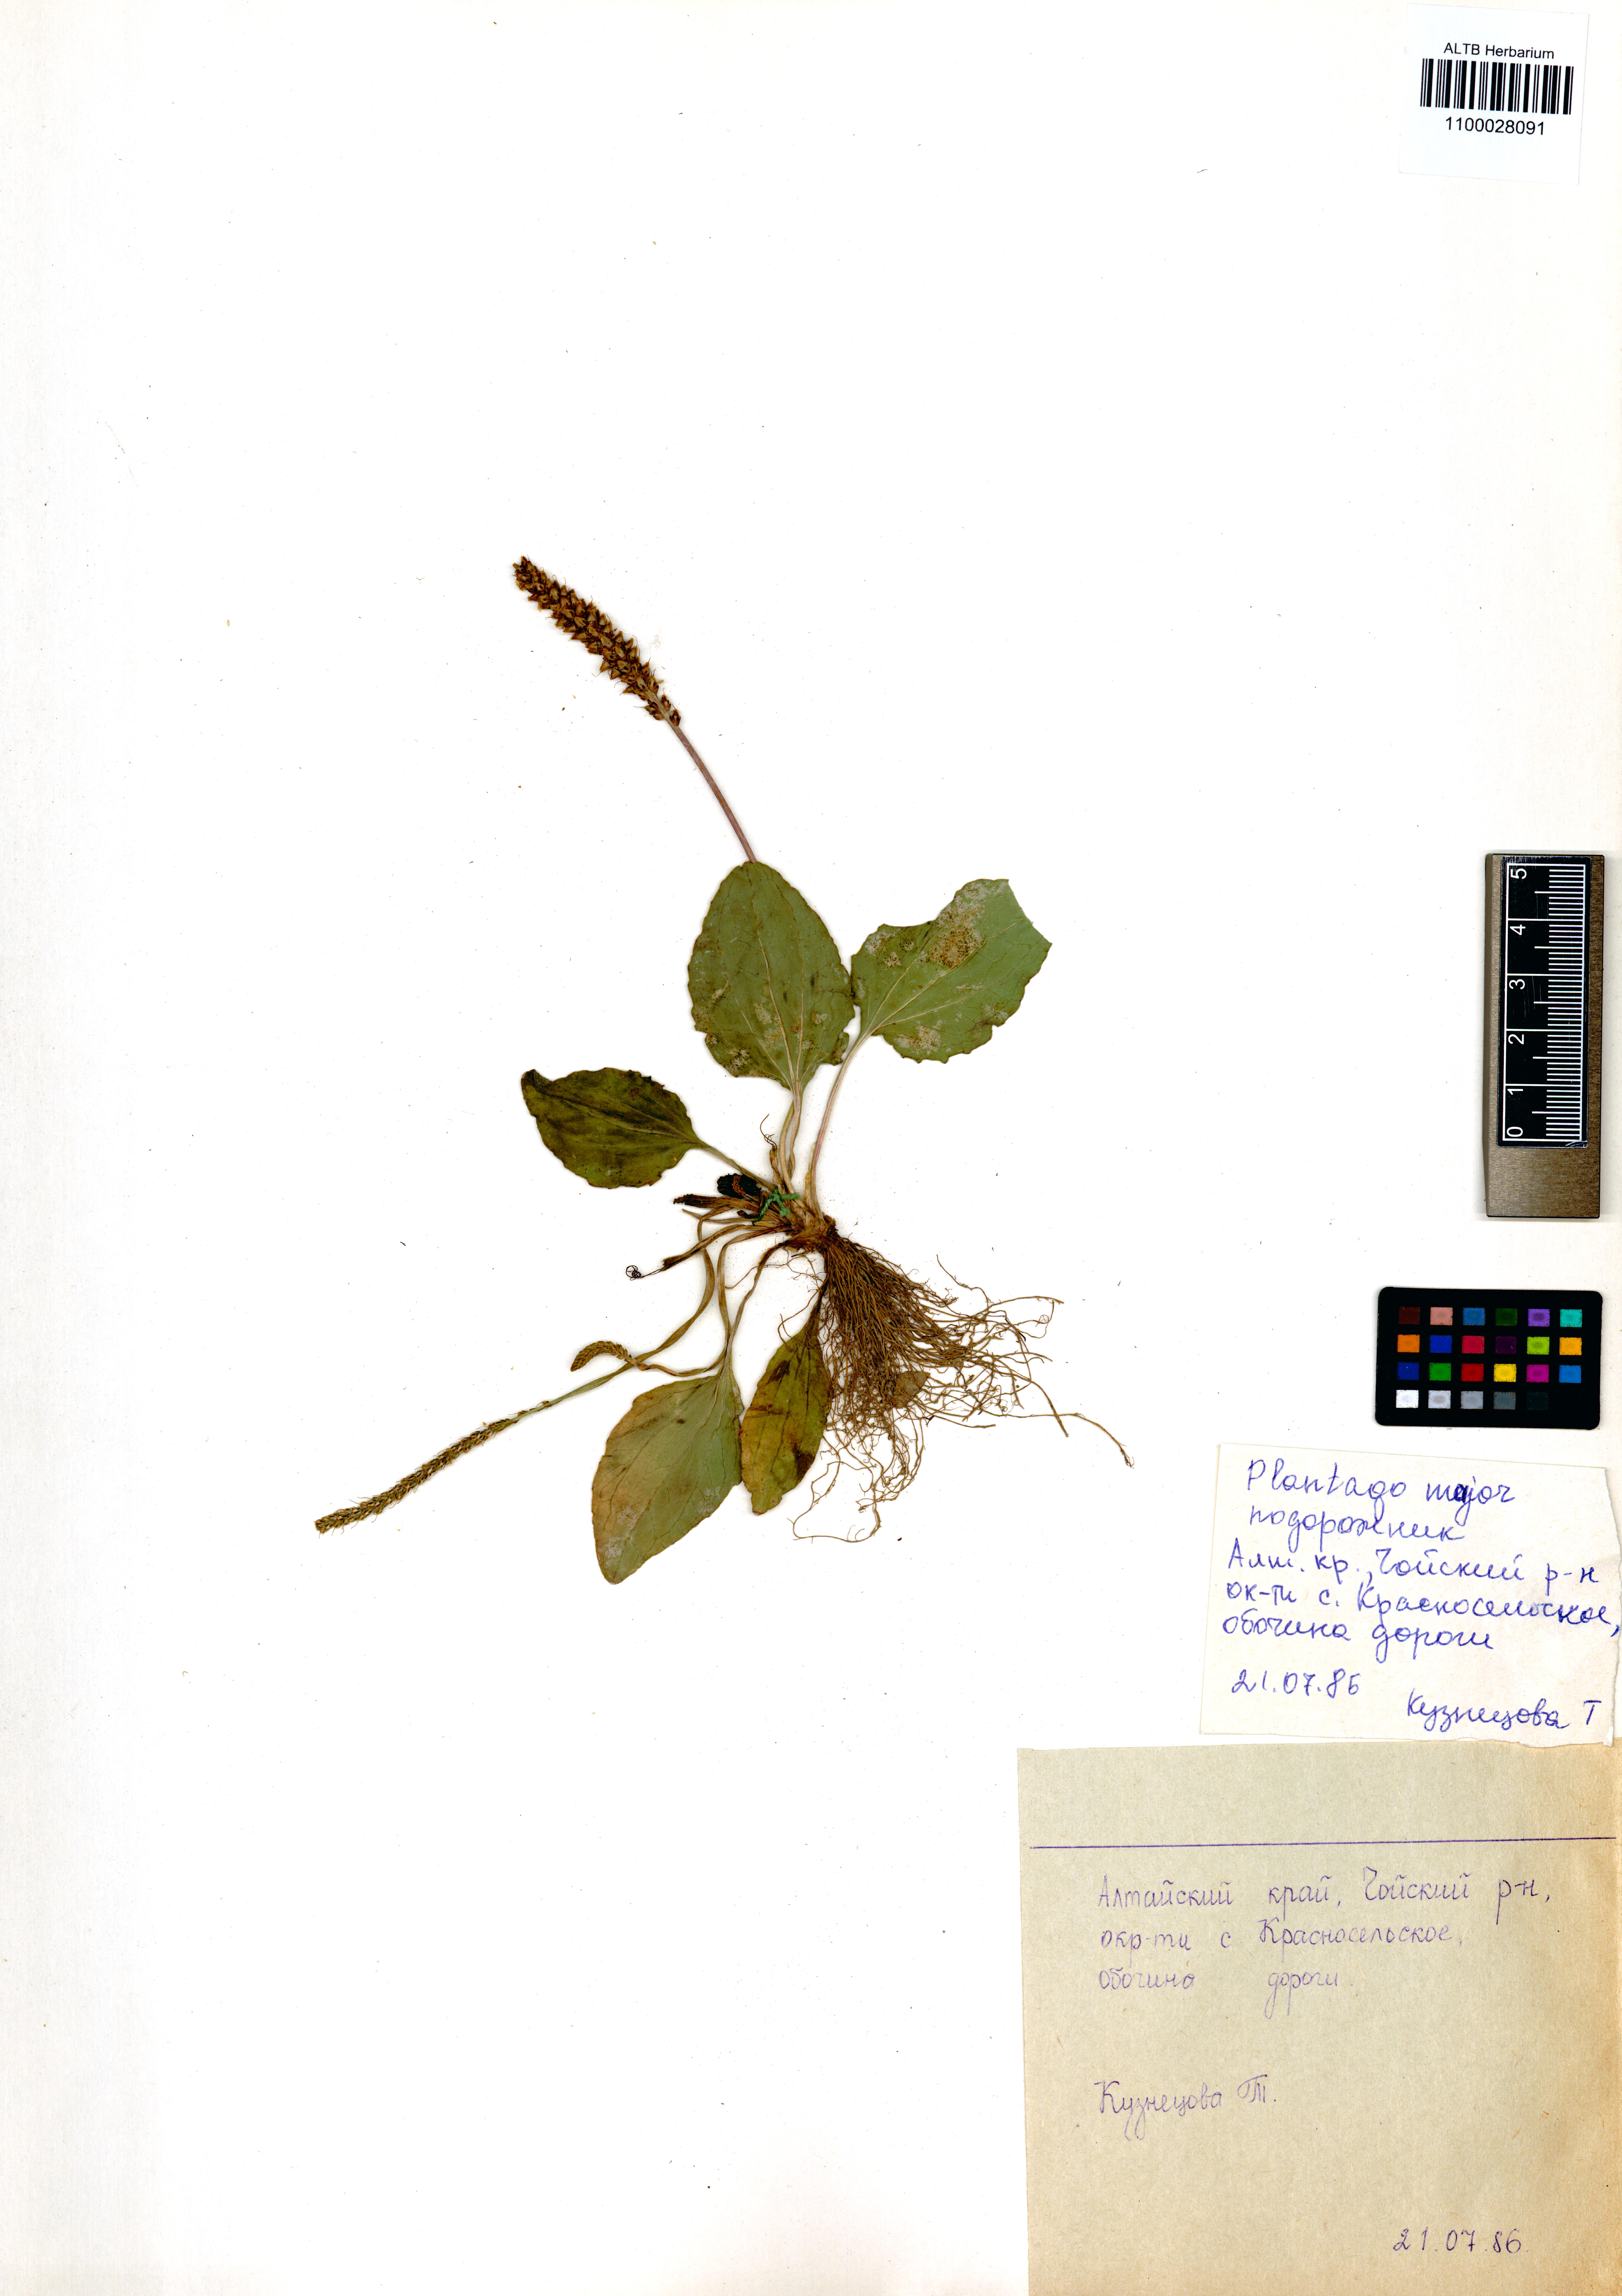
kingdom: Plantae
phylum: Tracheophyta
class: Magnoliopsida
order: Lamiales
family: Plantaginaceae
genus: Plantago
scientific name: Plantago major
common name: Common plantain
